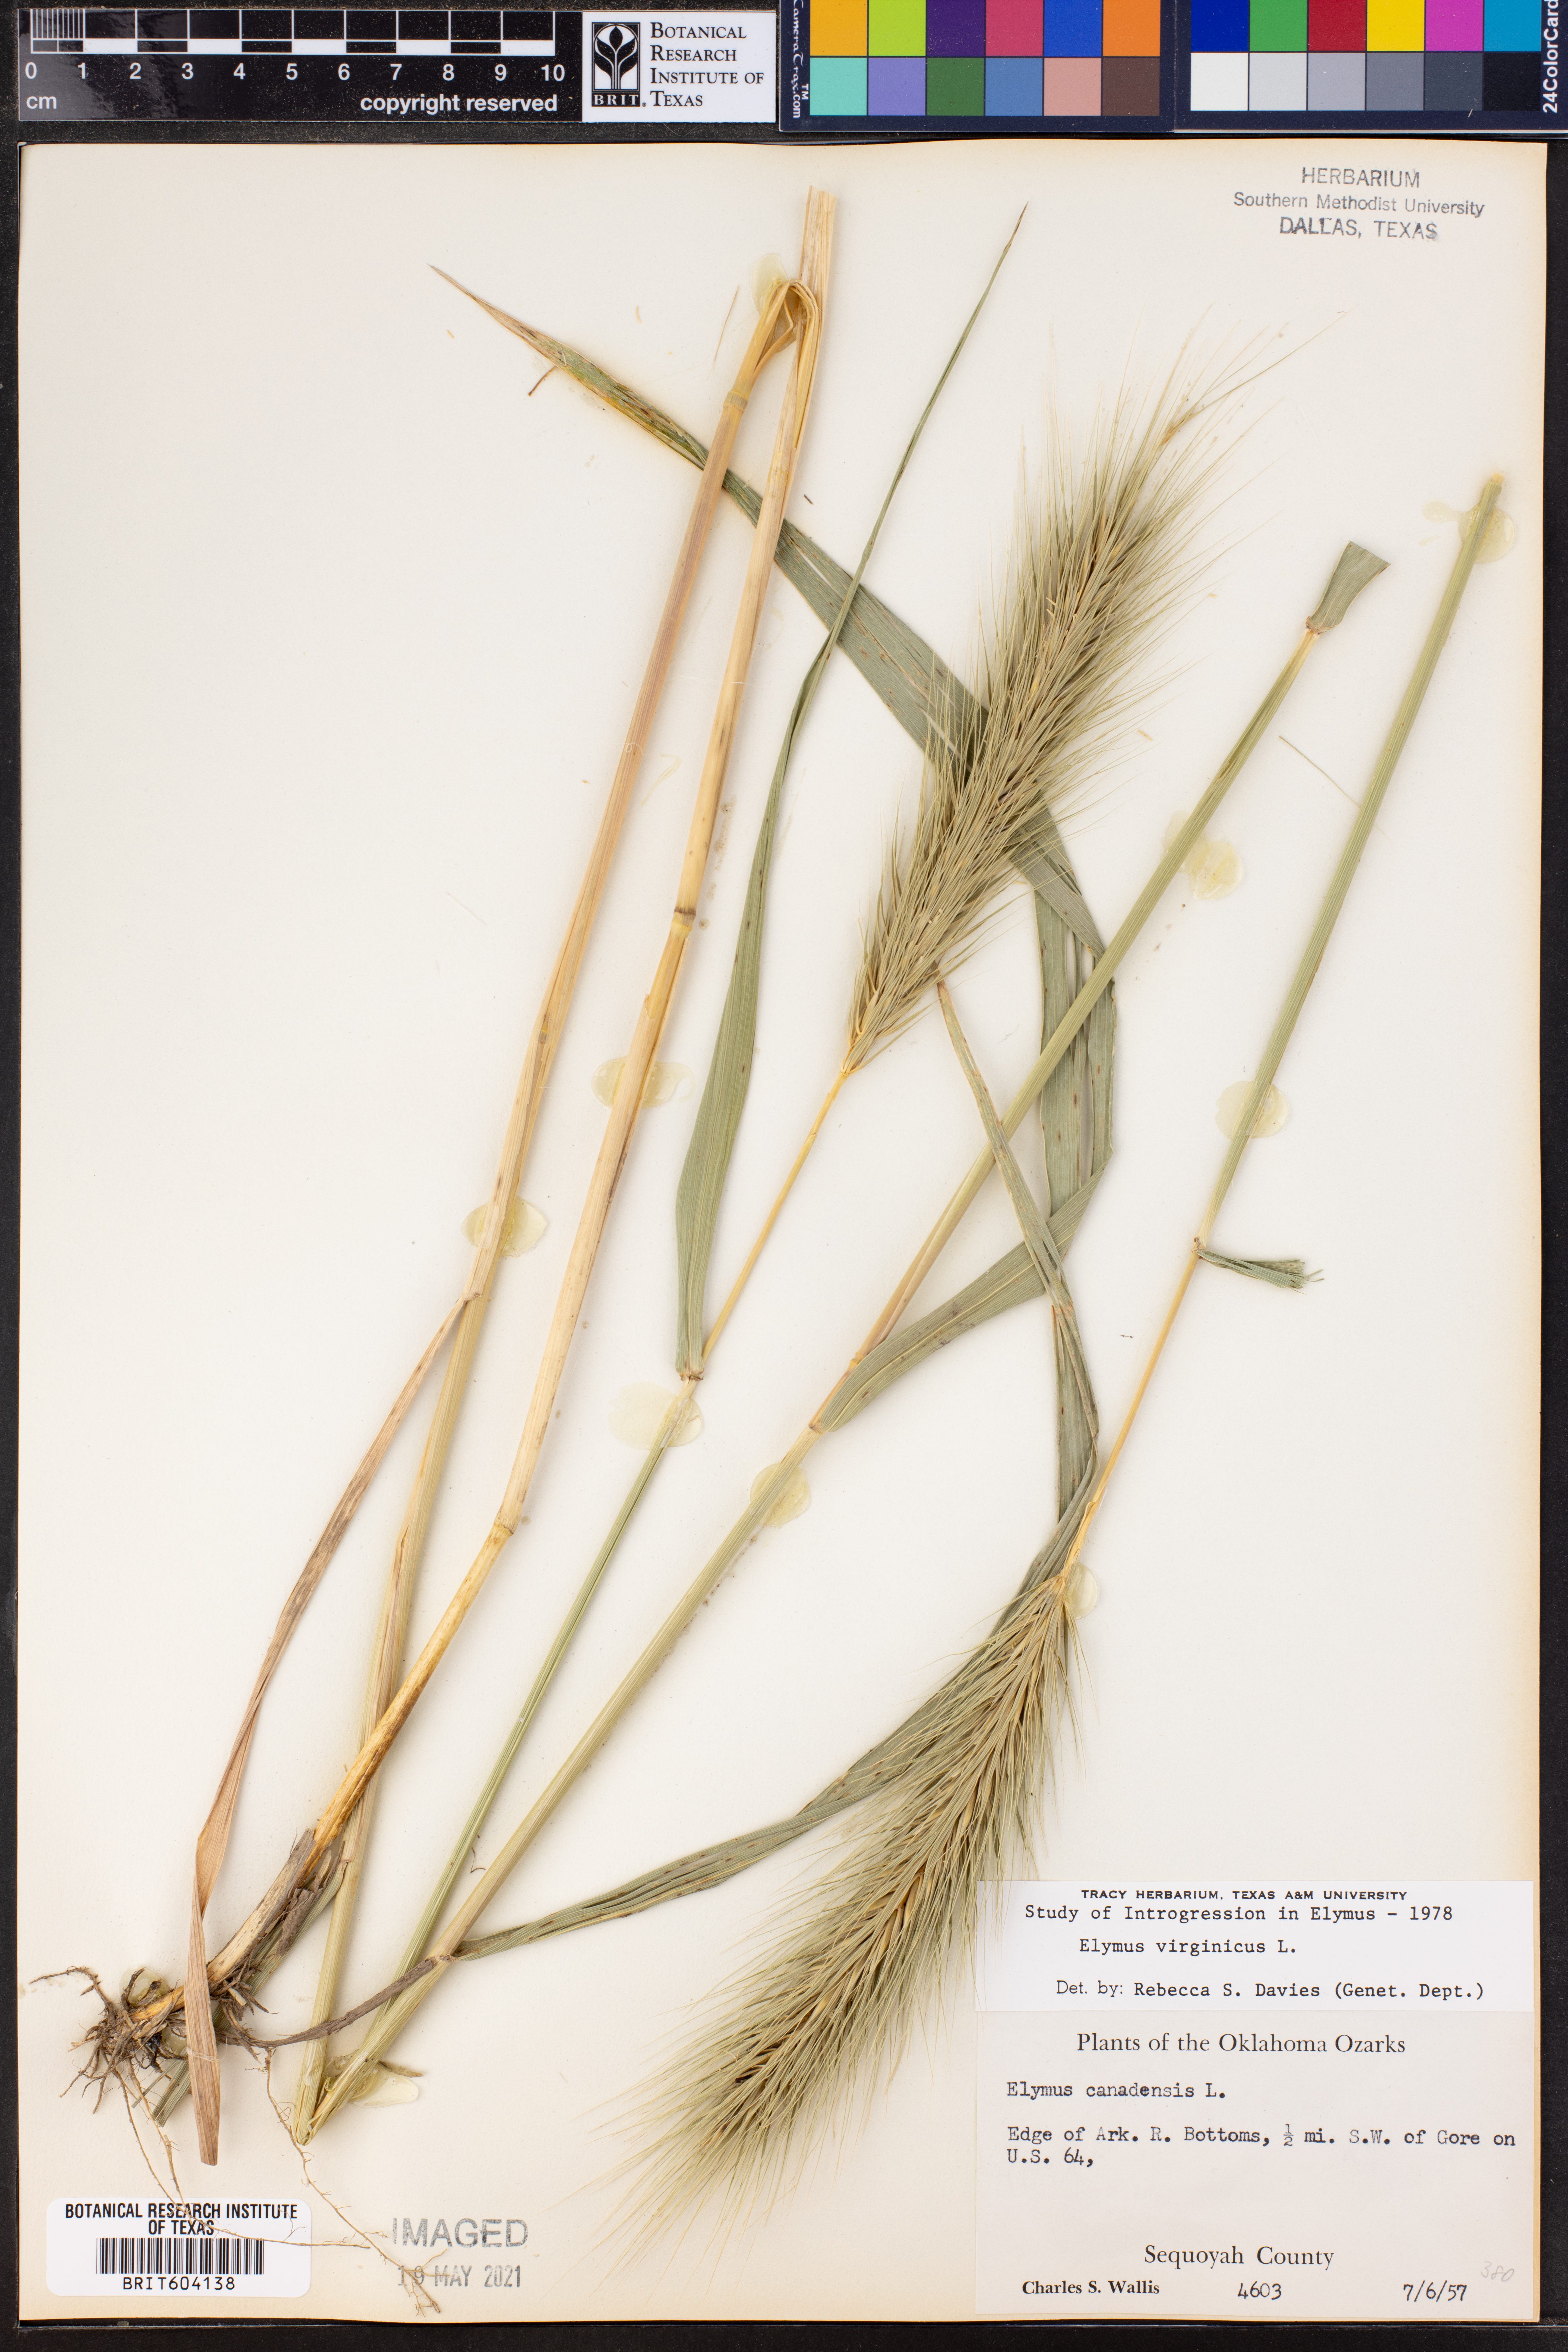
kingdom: Plantae
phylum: Tracheophyta
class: Liliopsida
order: Poales
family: Poaceae
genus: Elymus
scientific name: Elymus virginicus
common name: Common eastern wildrye
